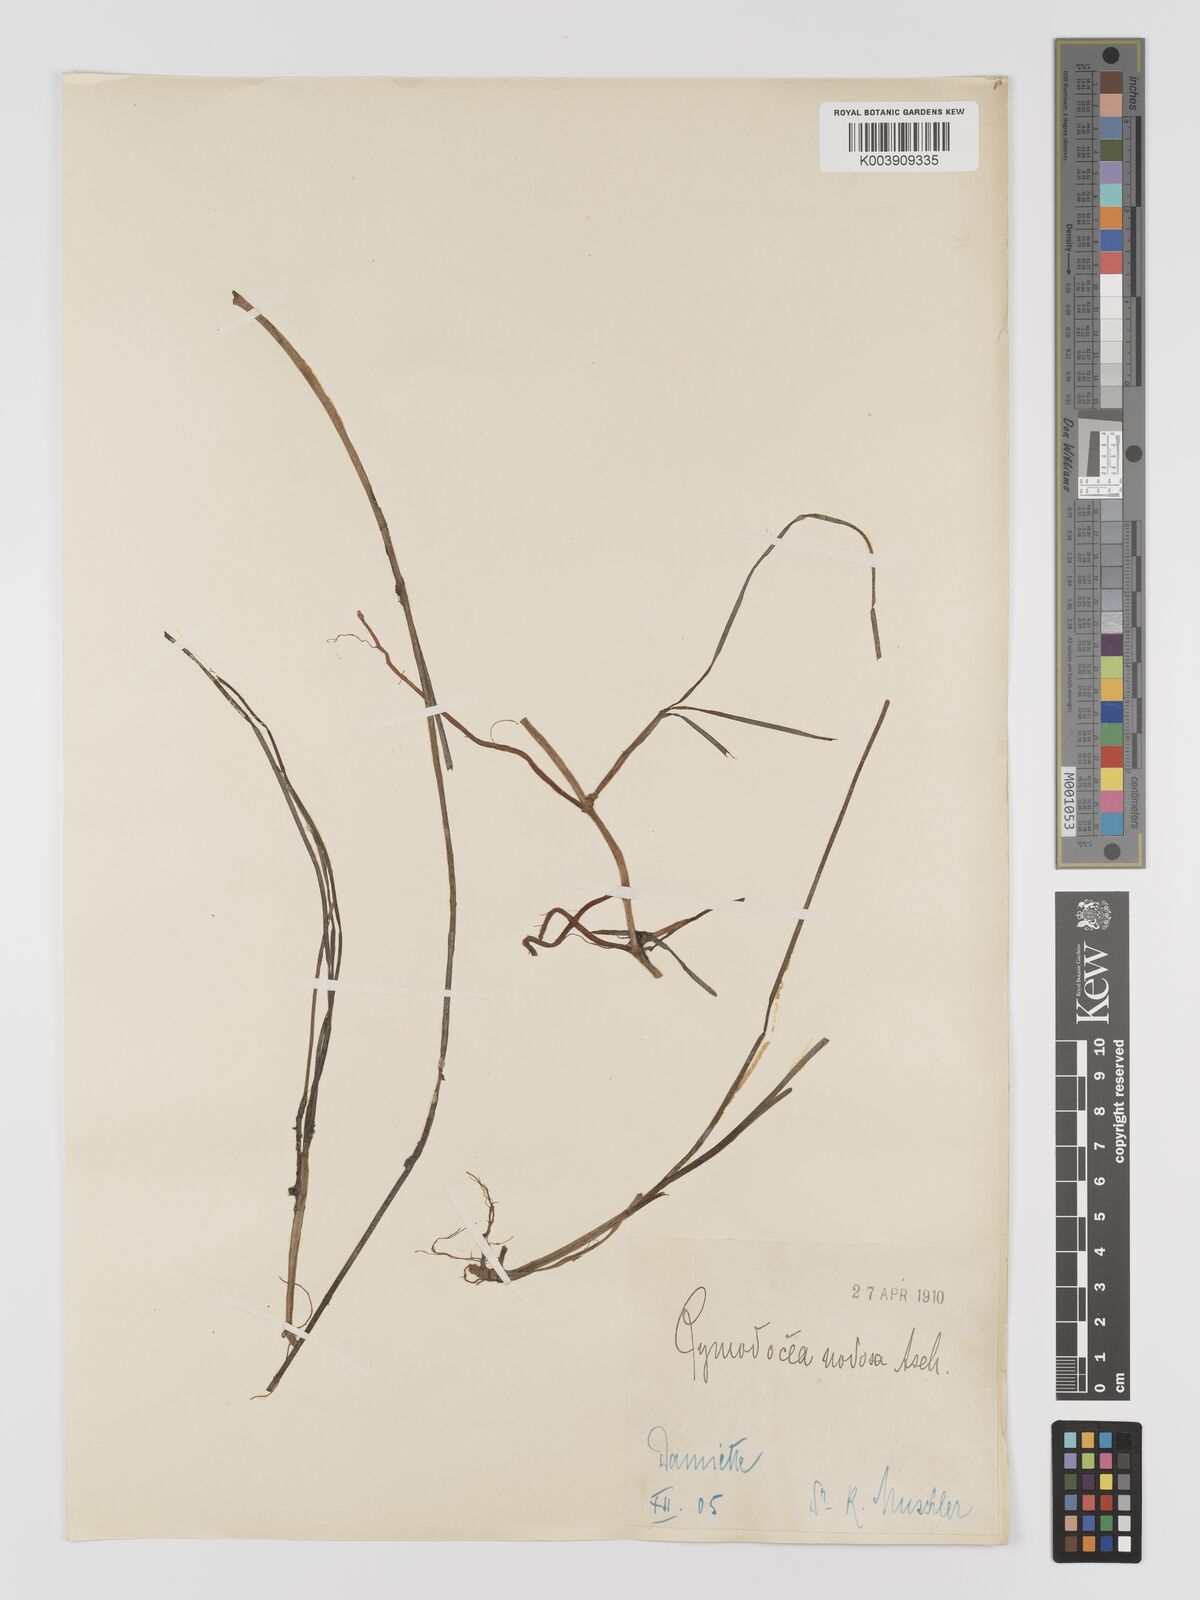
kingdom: Plantae
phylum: Tracheophyta
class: Liliopsida
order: Alismatales
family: Cymodoceaceae
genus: Cymodocea
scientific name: Cymodocea nodosa
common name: Slender seagrass
